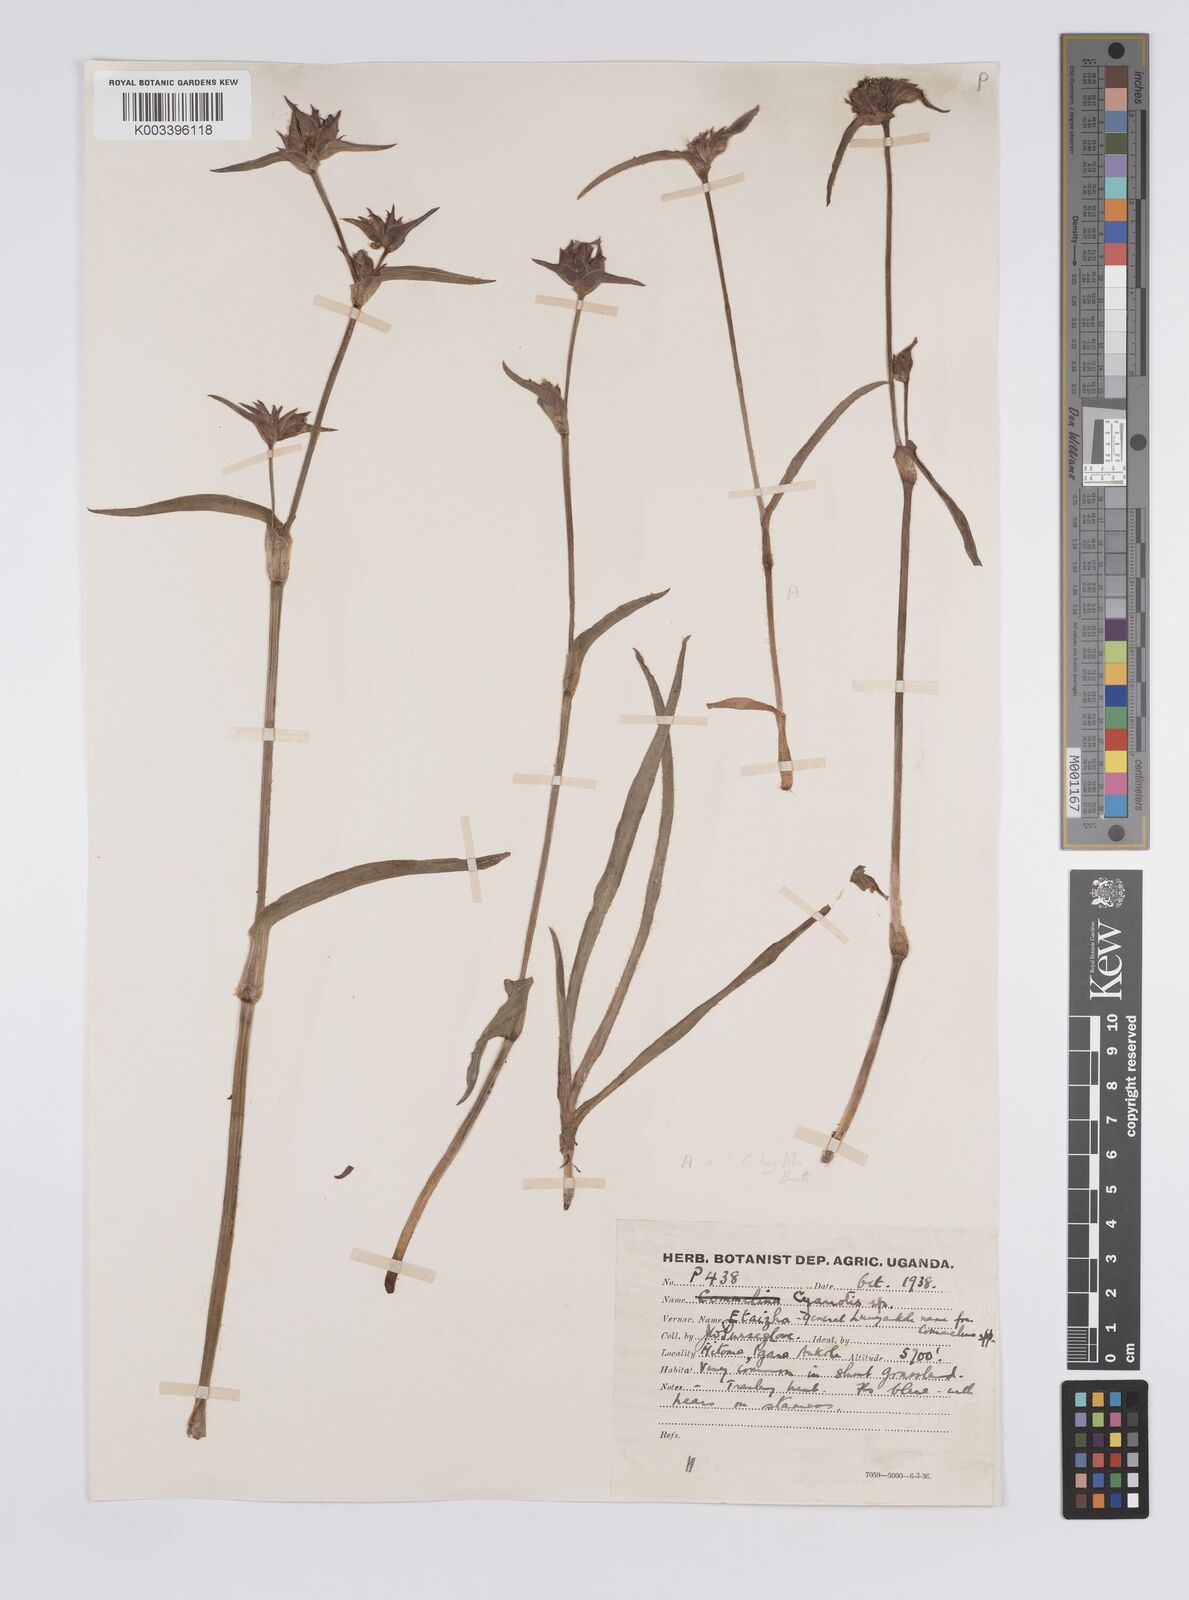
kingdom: Plantae
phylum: Tracheophyta
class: Liliopsida
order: Commelinales
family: Commelinaceae
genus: Cyanotis
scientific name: Cyanotis
